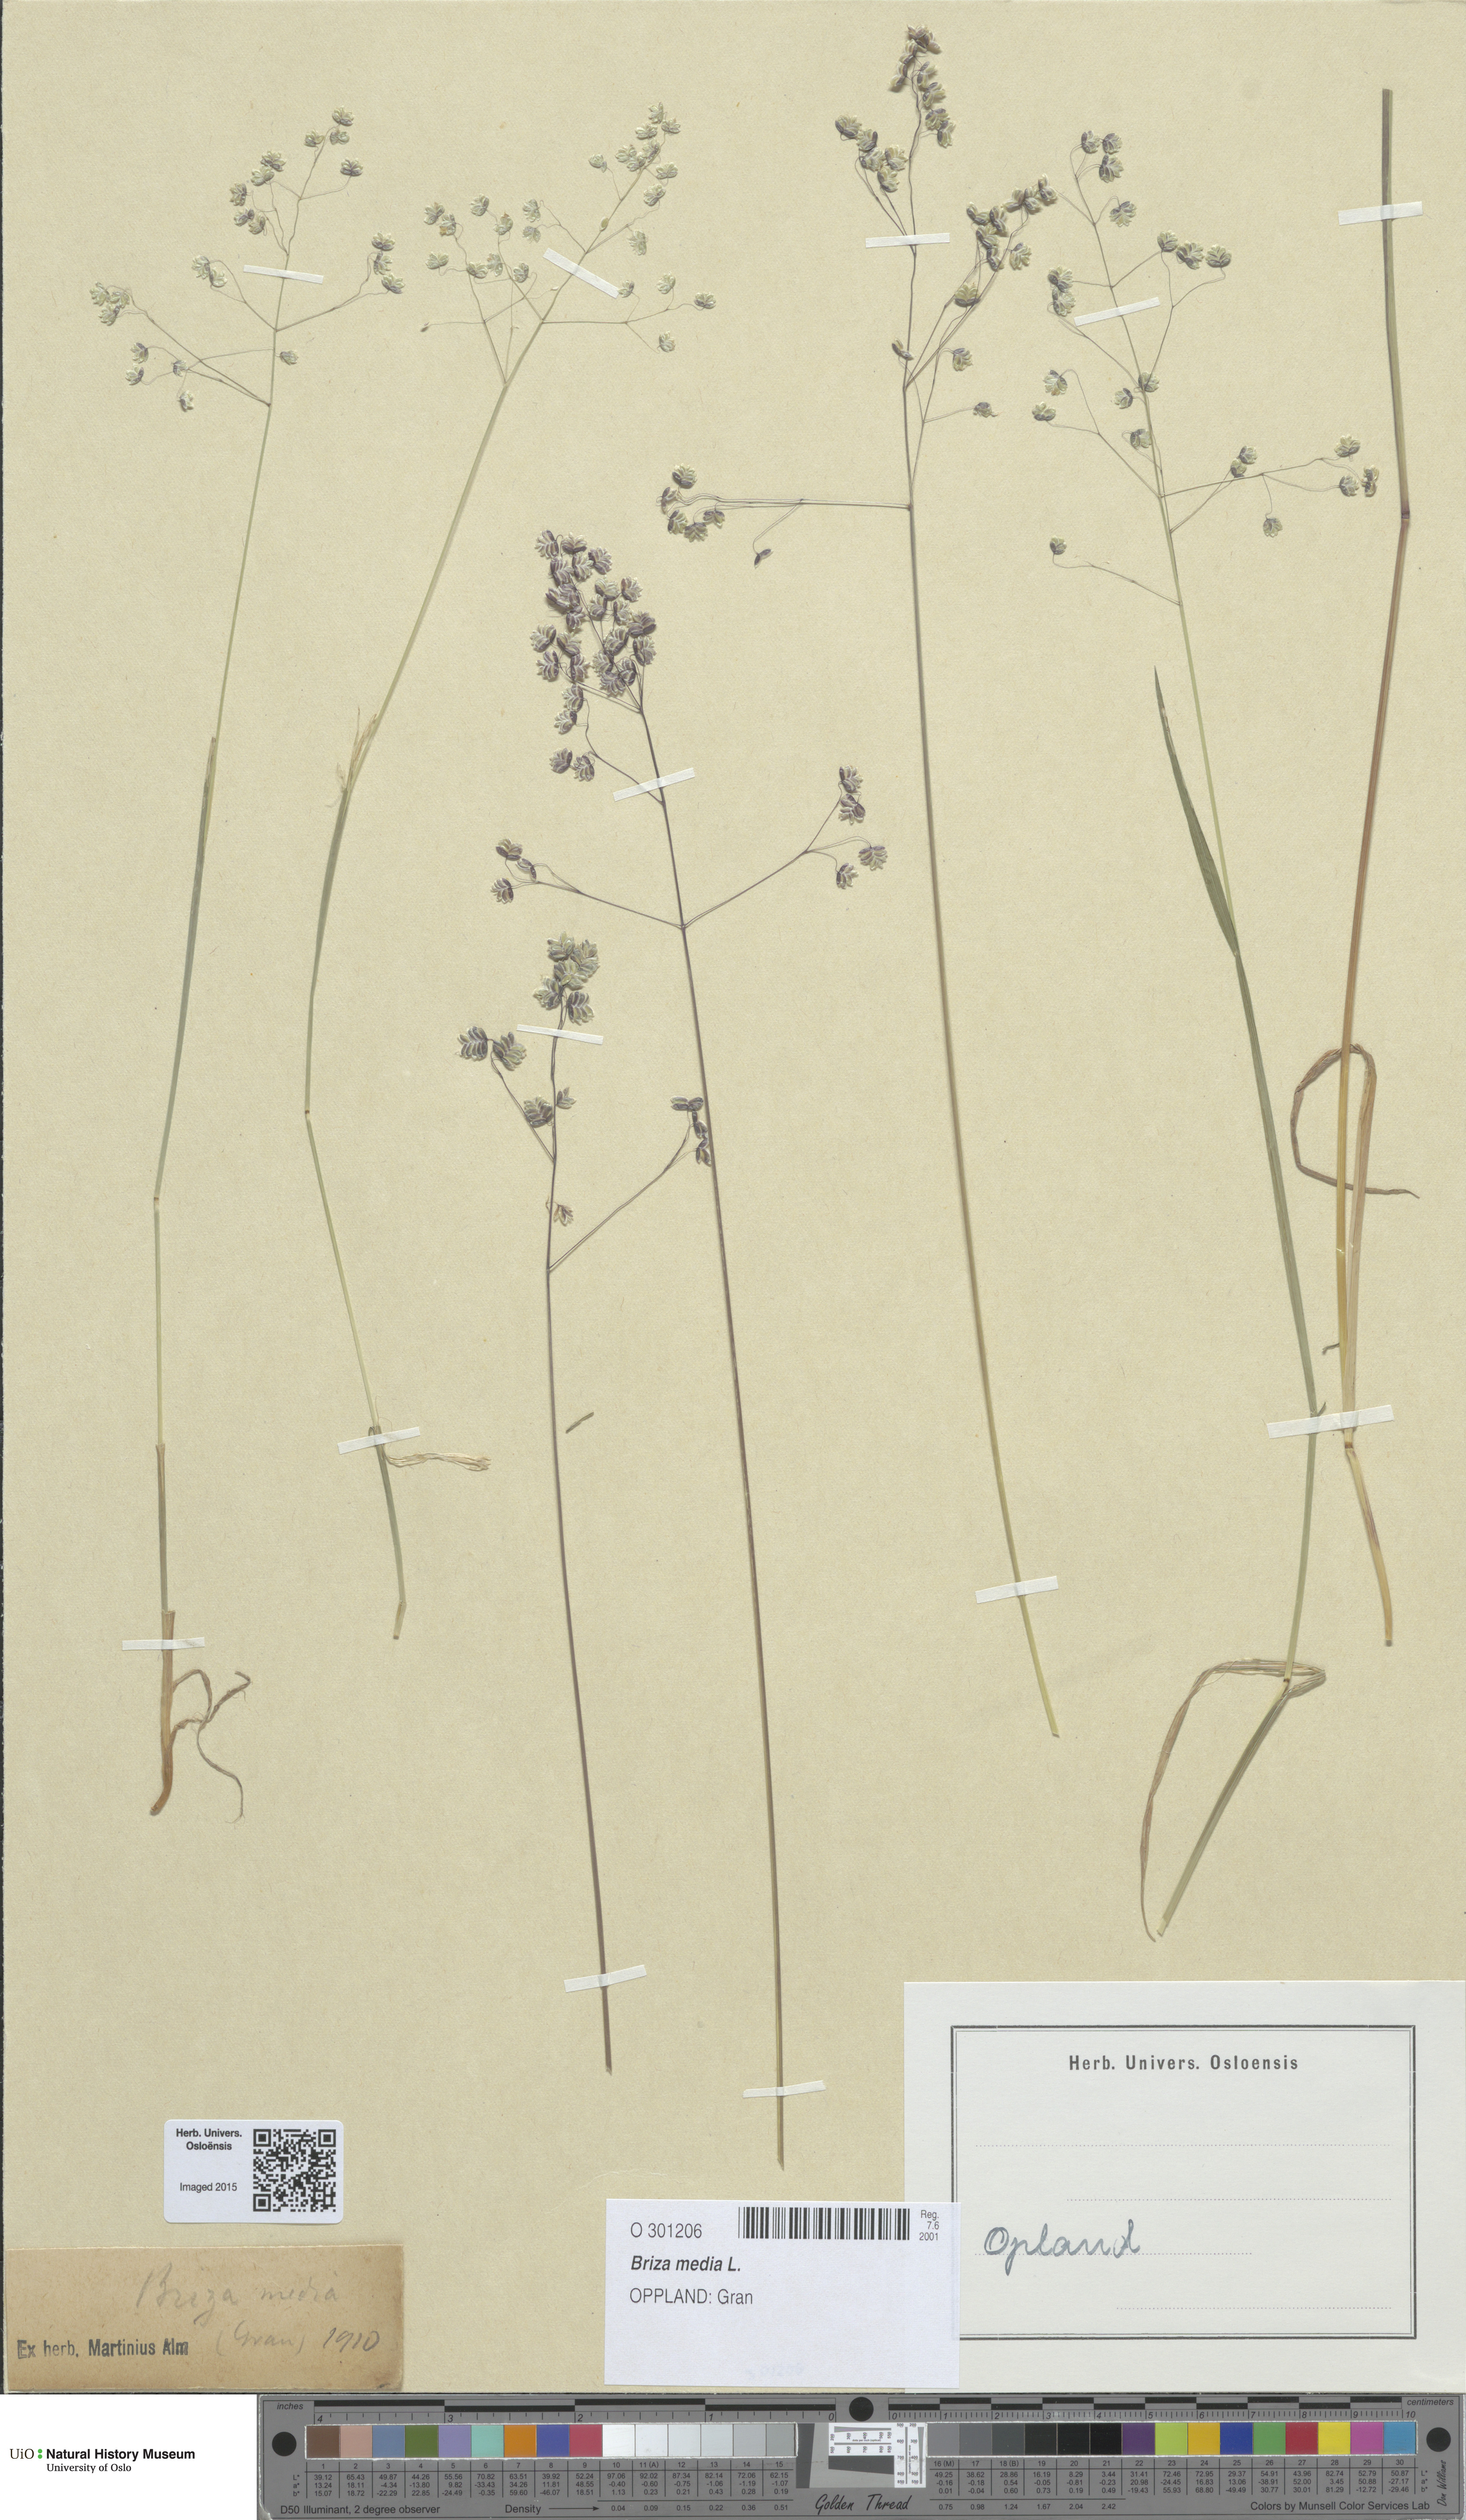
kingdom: Plantae
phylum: Tracheophyta
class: Liliopsida
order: Poales
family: Poaceae
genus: Briza
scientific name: Briza media
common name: Quaking grass
